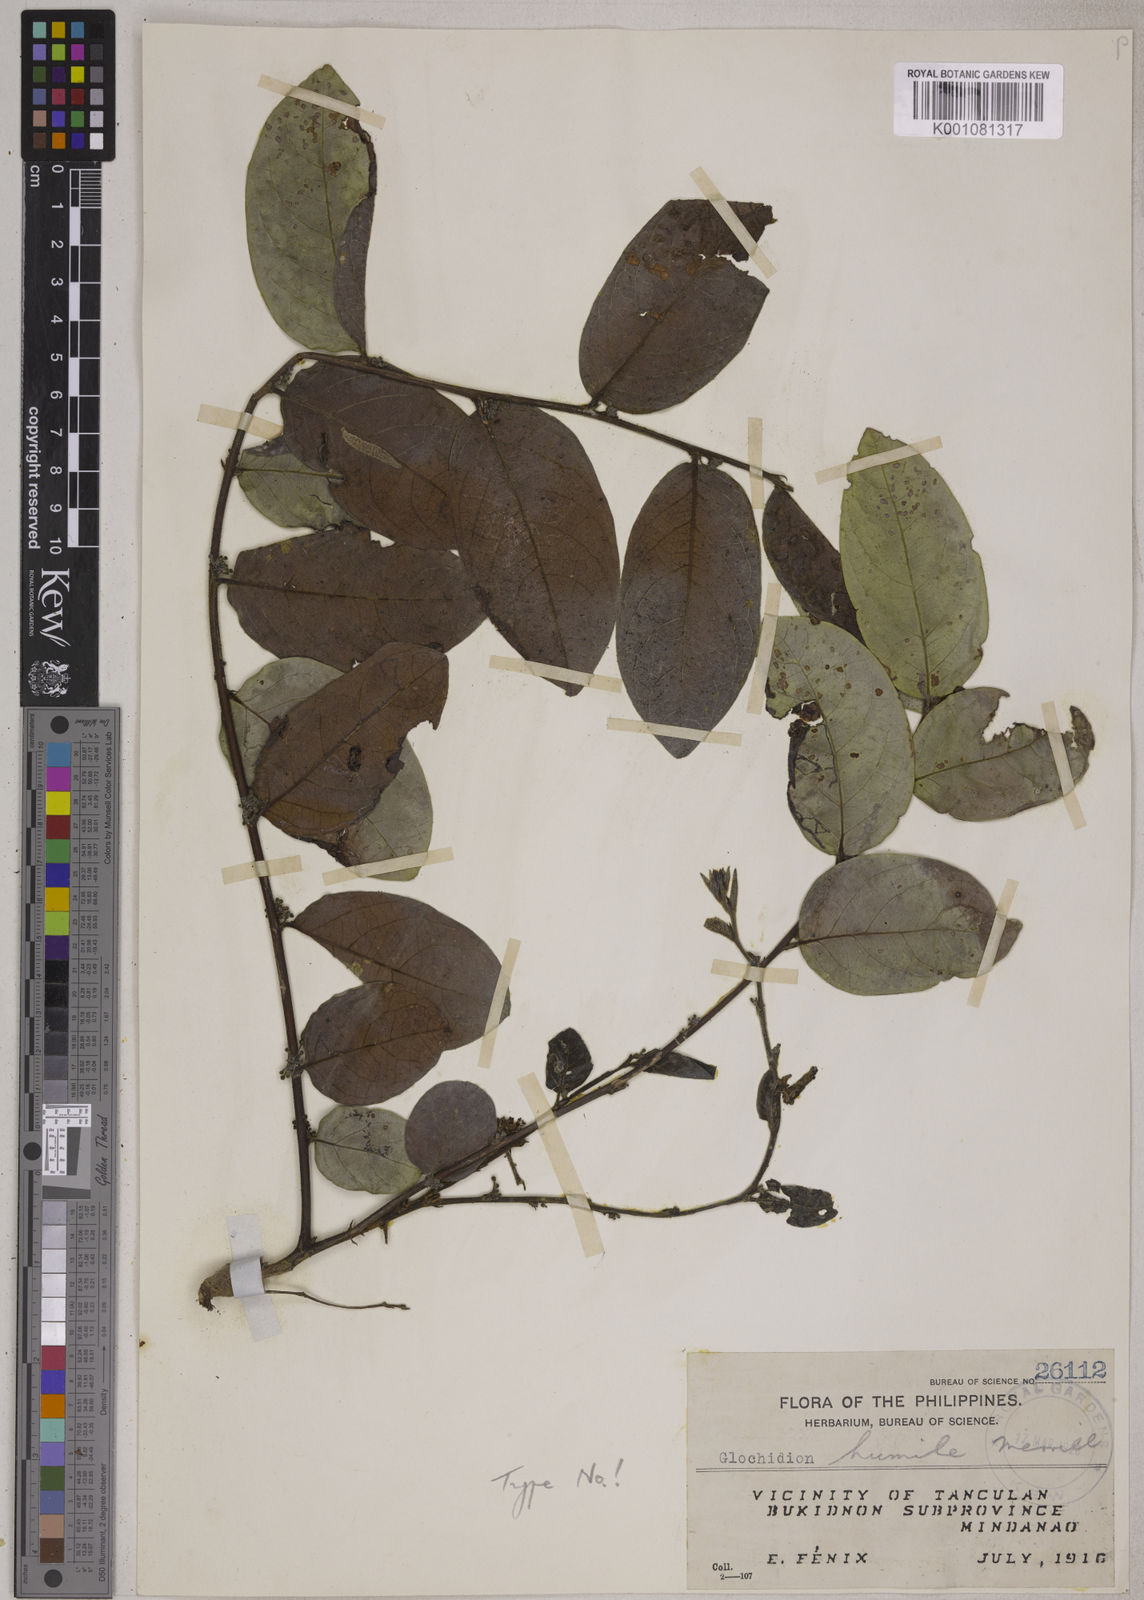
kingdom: Plantae
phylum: Tracheophyta
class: Magnoliopsida
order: Malpighiales
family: Phyllanthaceae
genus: Glochidion
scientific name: Glochidion humile
